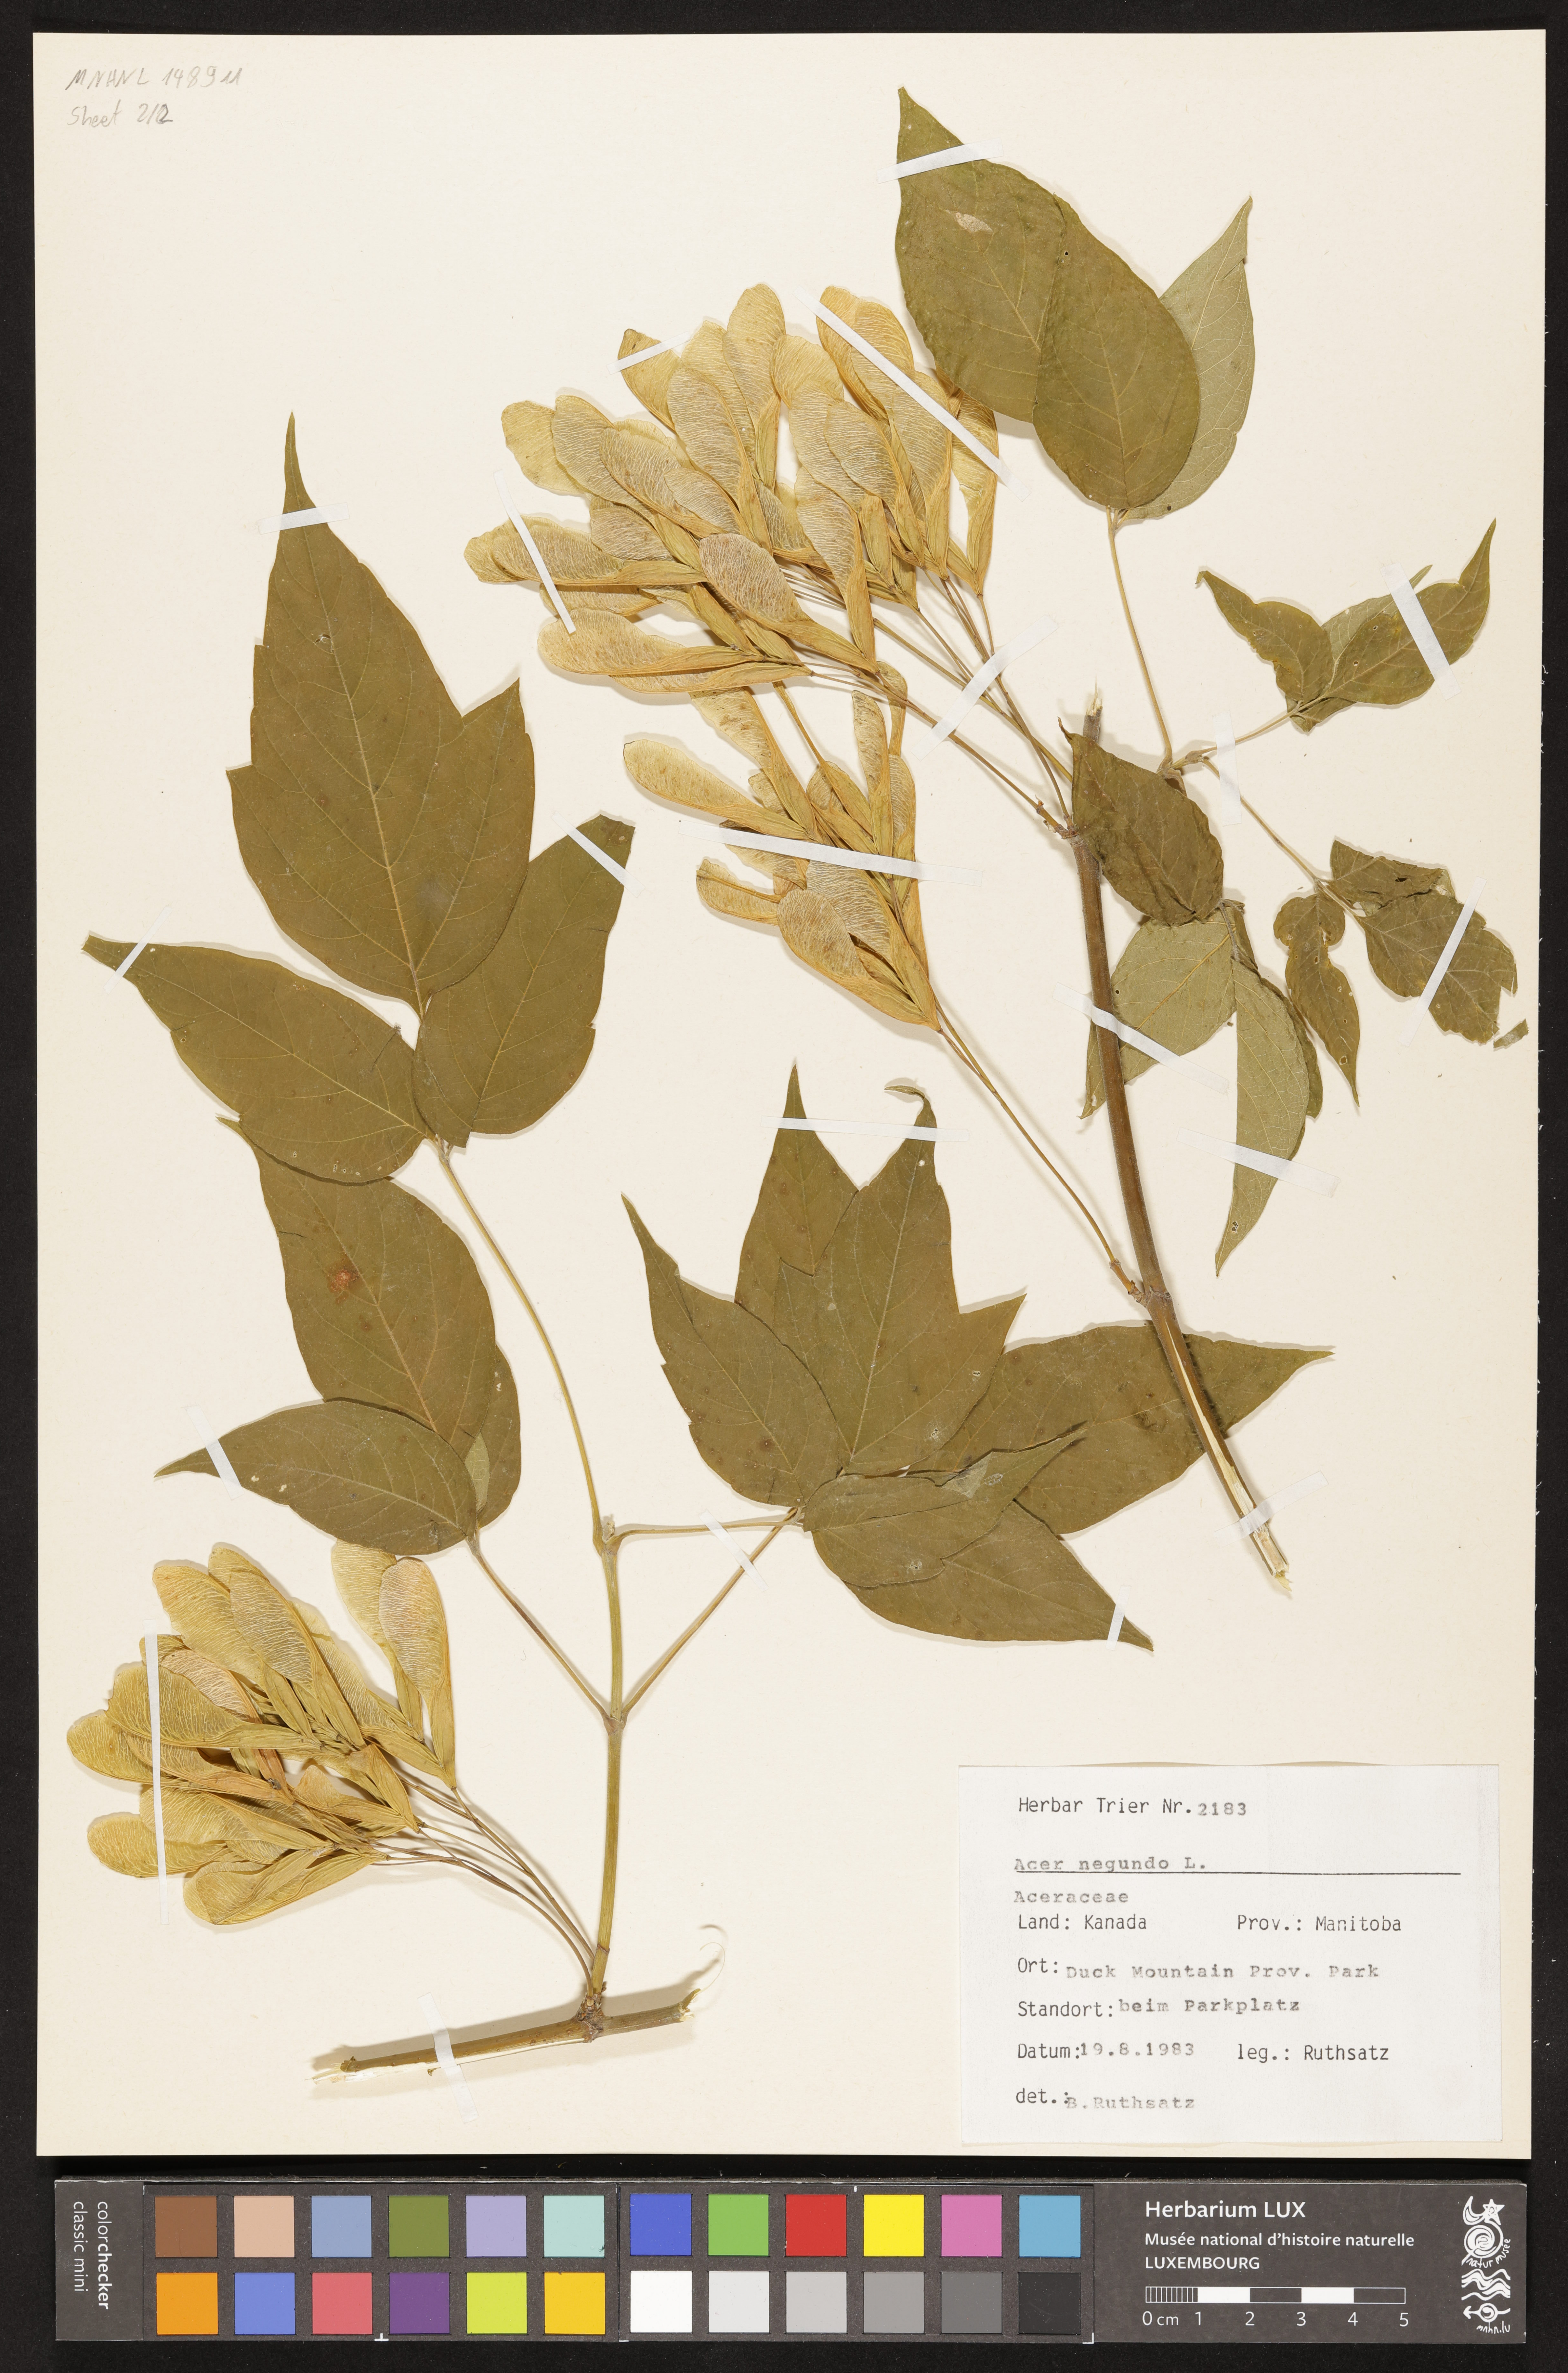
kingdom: Plantae
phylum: Tracheophyta
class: Magnoliopsida
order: Sapindales
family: Sapindaceae
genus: Acer
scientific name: Acer negundo
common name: Ashleaf maple
